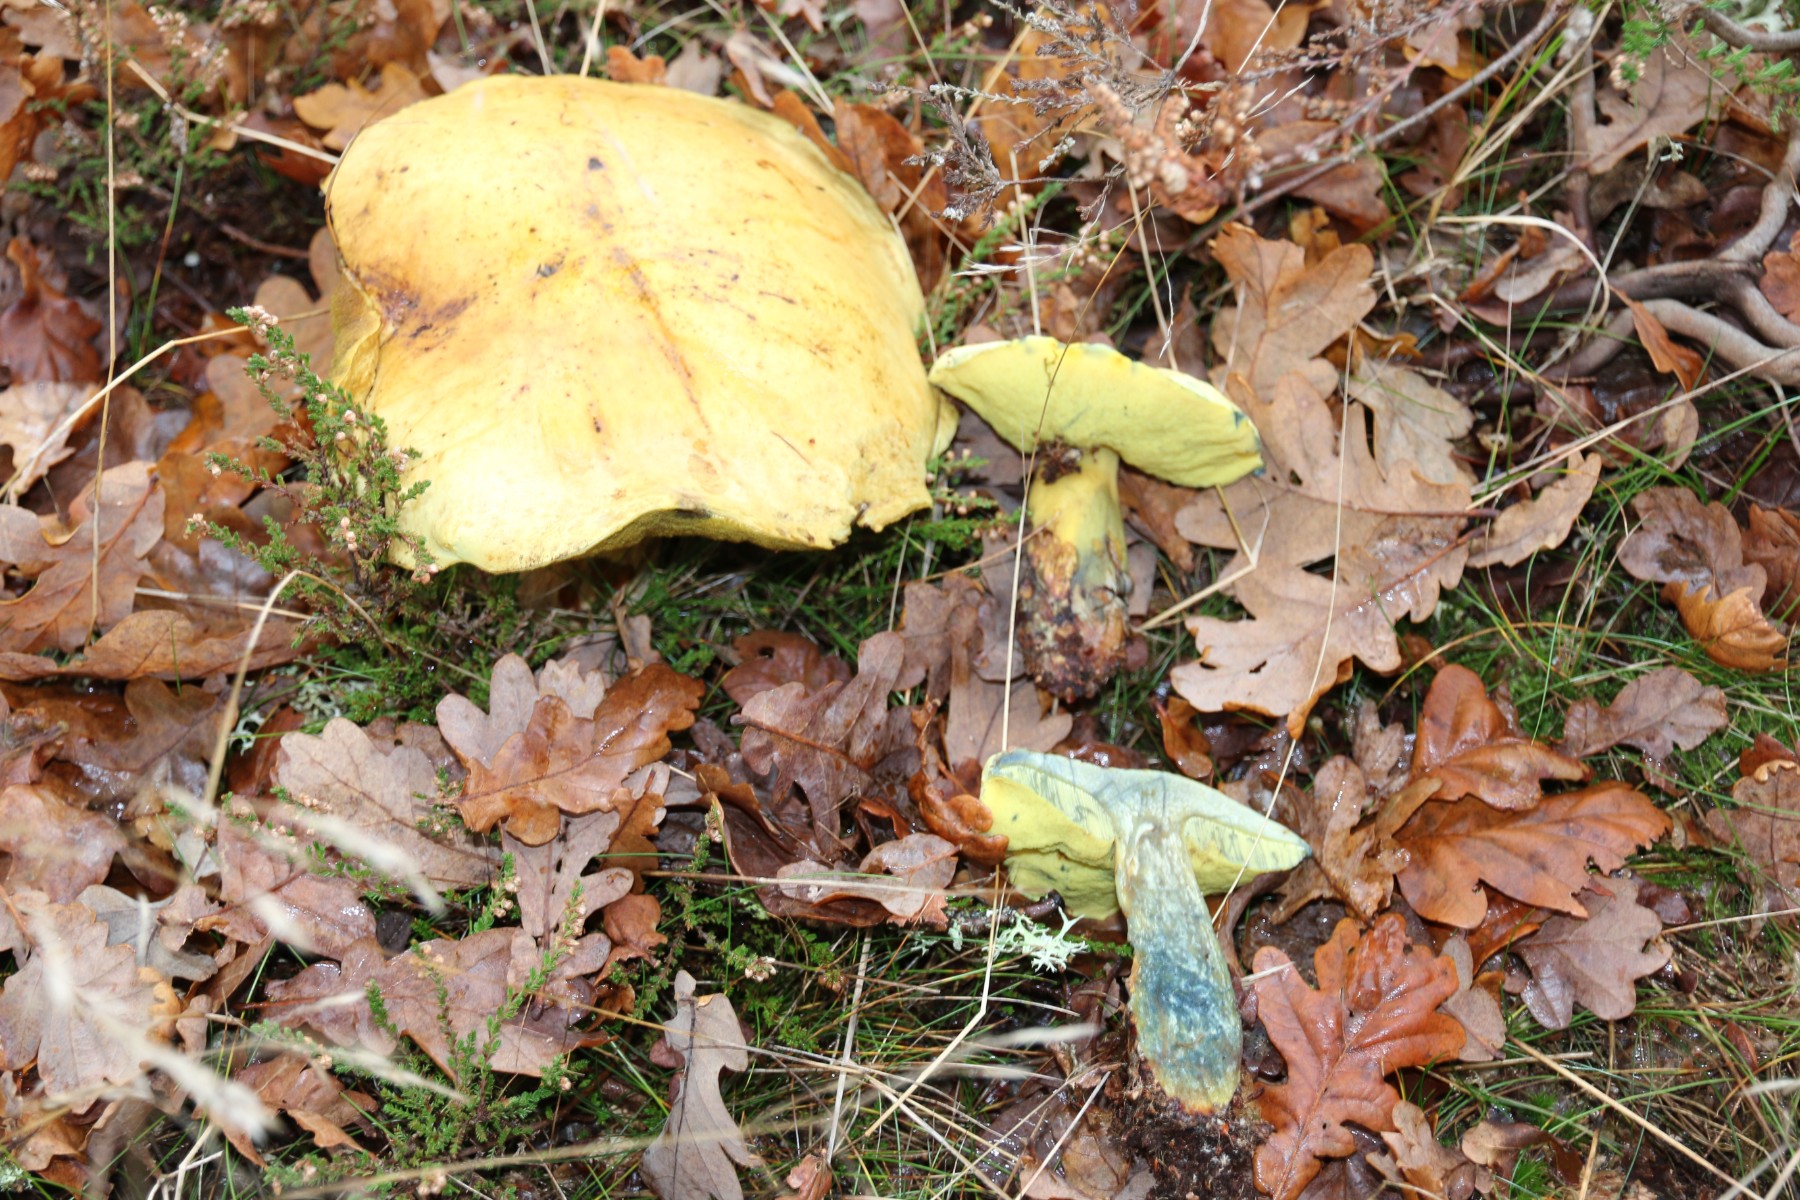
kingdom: Fungi
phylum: Basidiomycota
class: Agaricomycetes
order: Boletales
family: Boletaceae
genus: Neoboletus
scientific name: Neoboletus praestigiator
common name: gul indigorørhat
